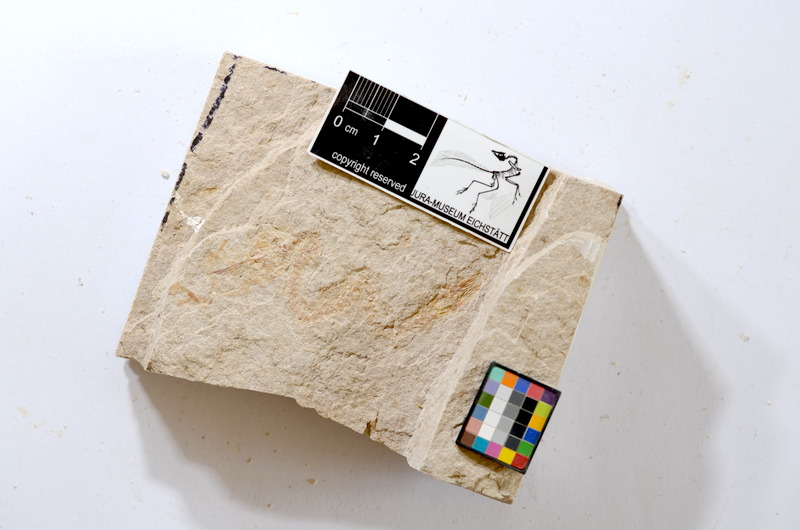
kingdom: Animalia
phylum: Chordata
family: Ascalaboidae
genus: Tharsis
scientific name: Tharsis dubius
